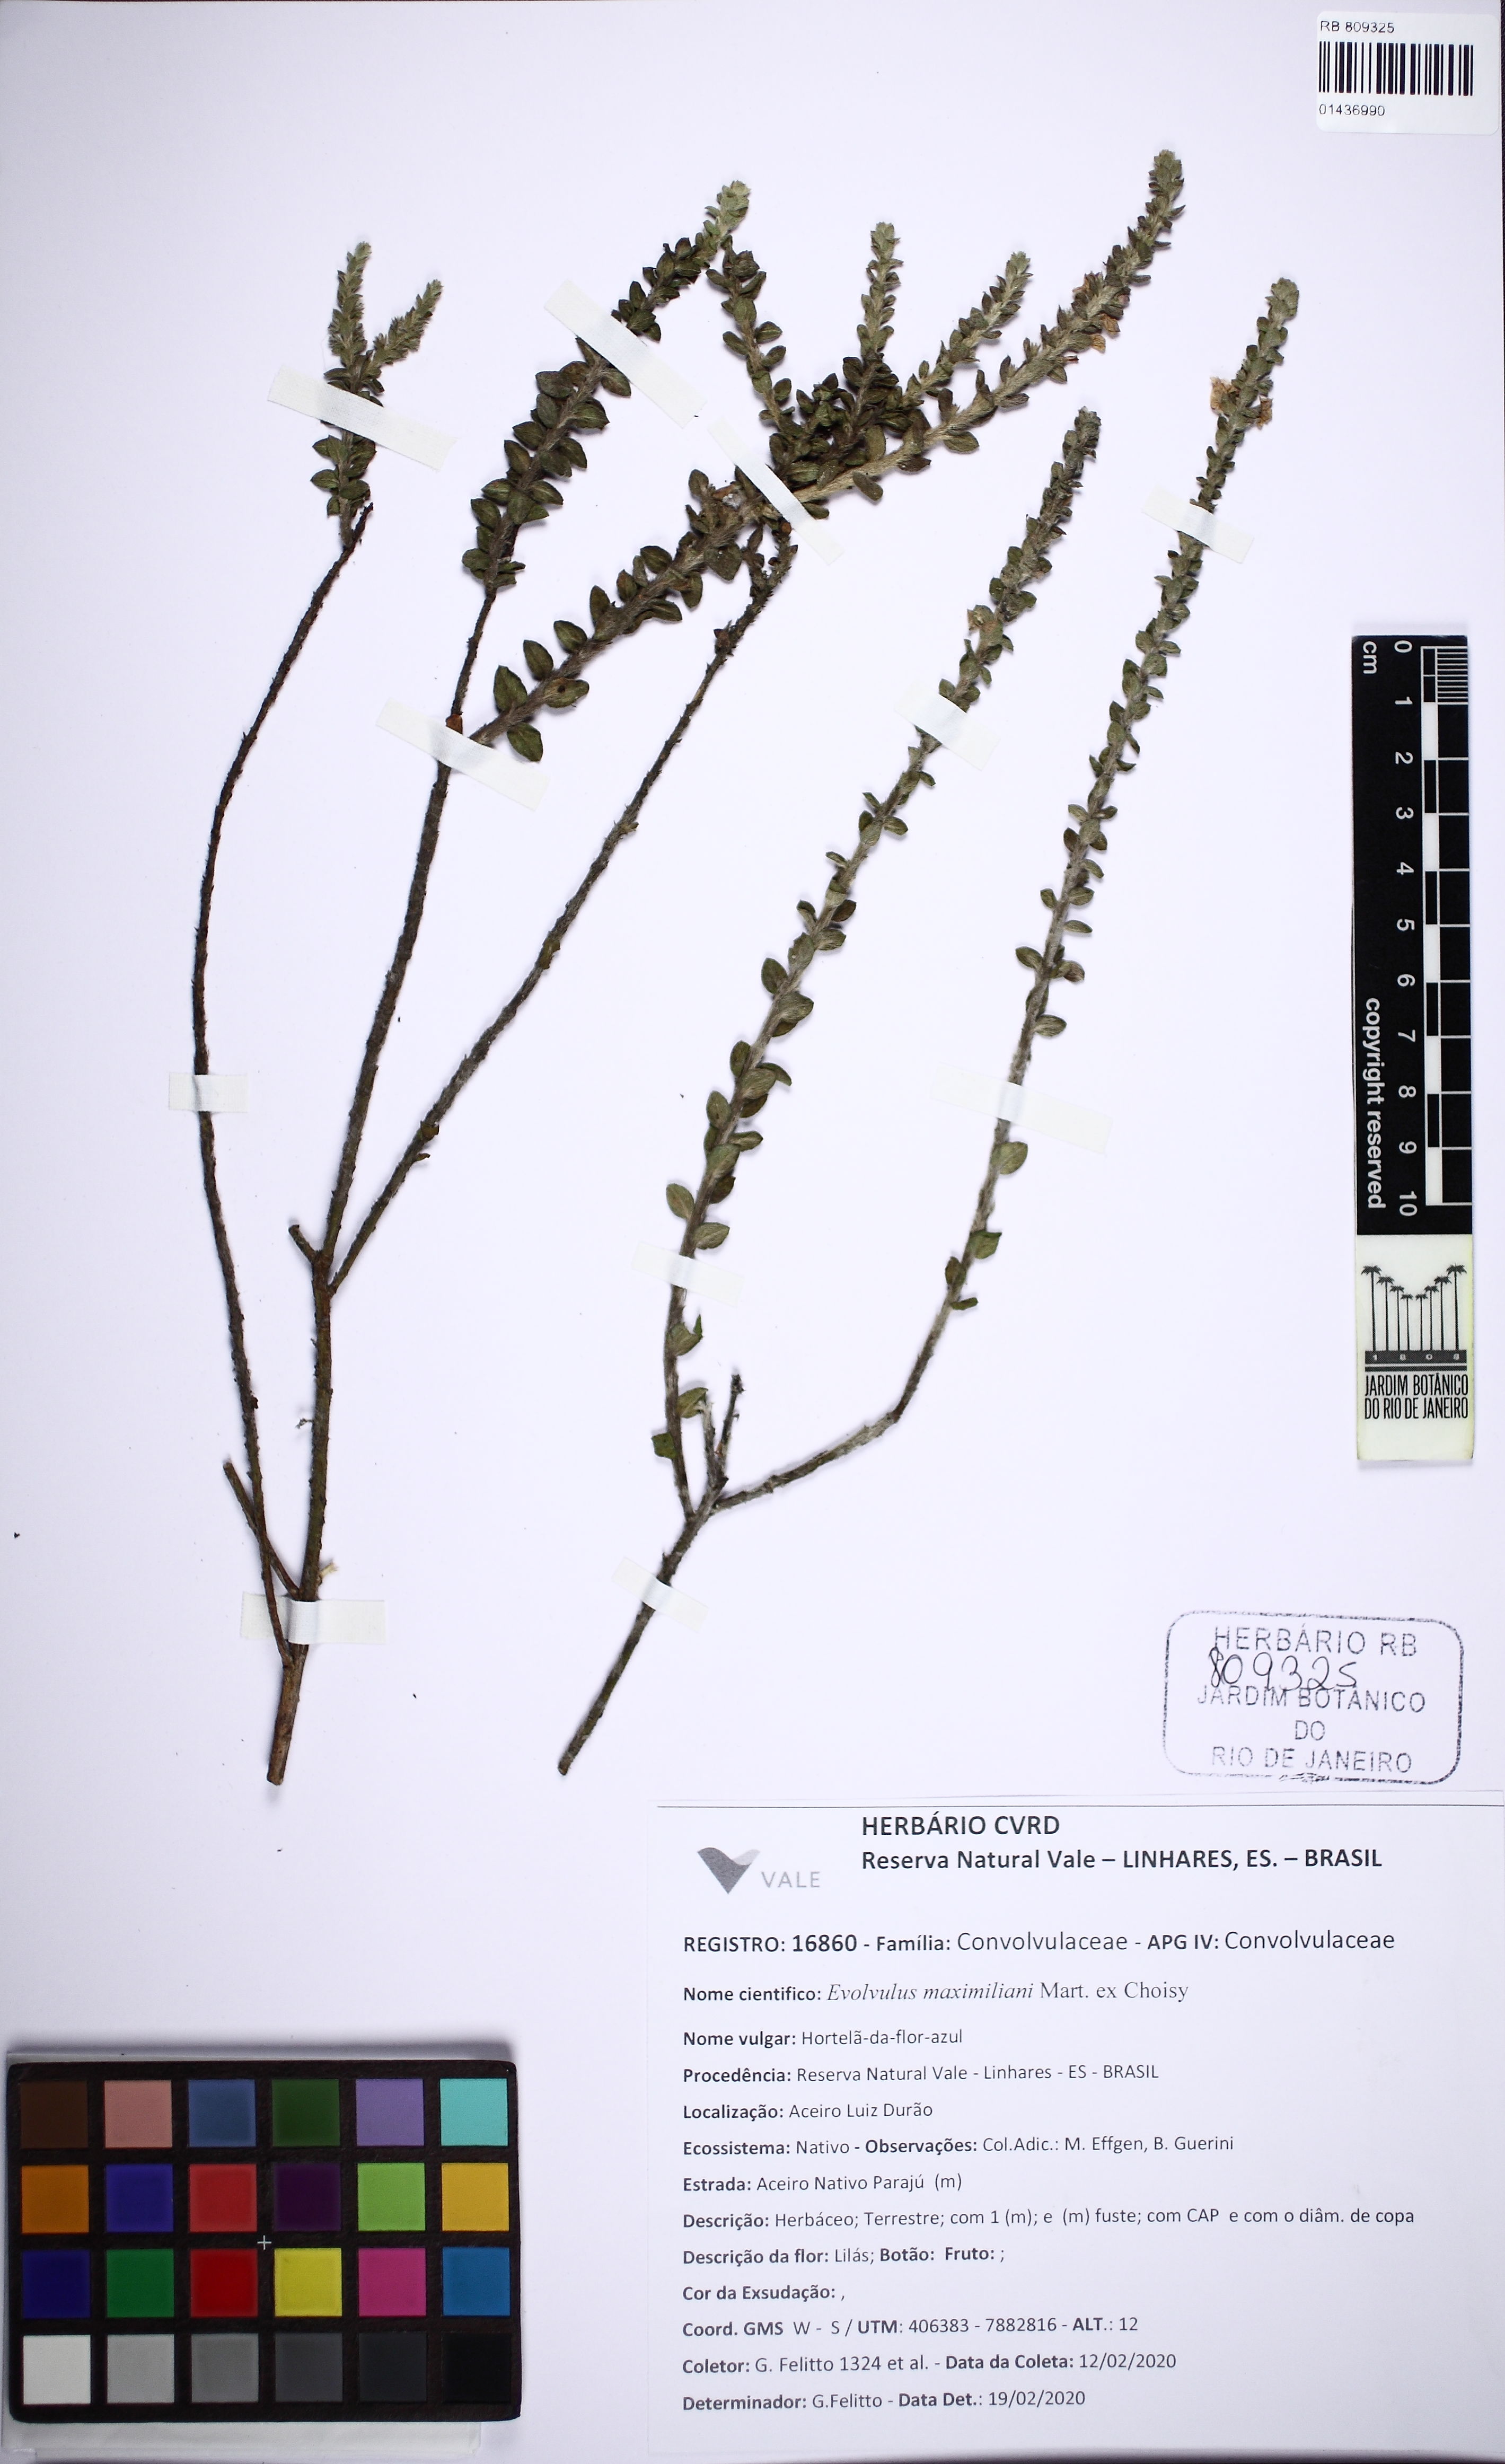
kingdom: Plantae
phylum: Tracheophyta
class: Magnoliopsida
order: Solanales
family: Convolvulaceae
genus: Evolvulus
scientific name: Evolvulus maximiliani
